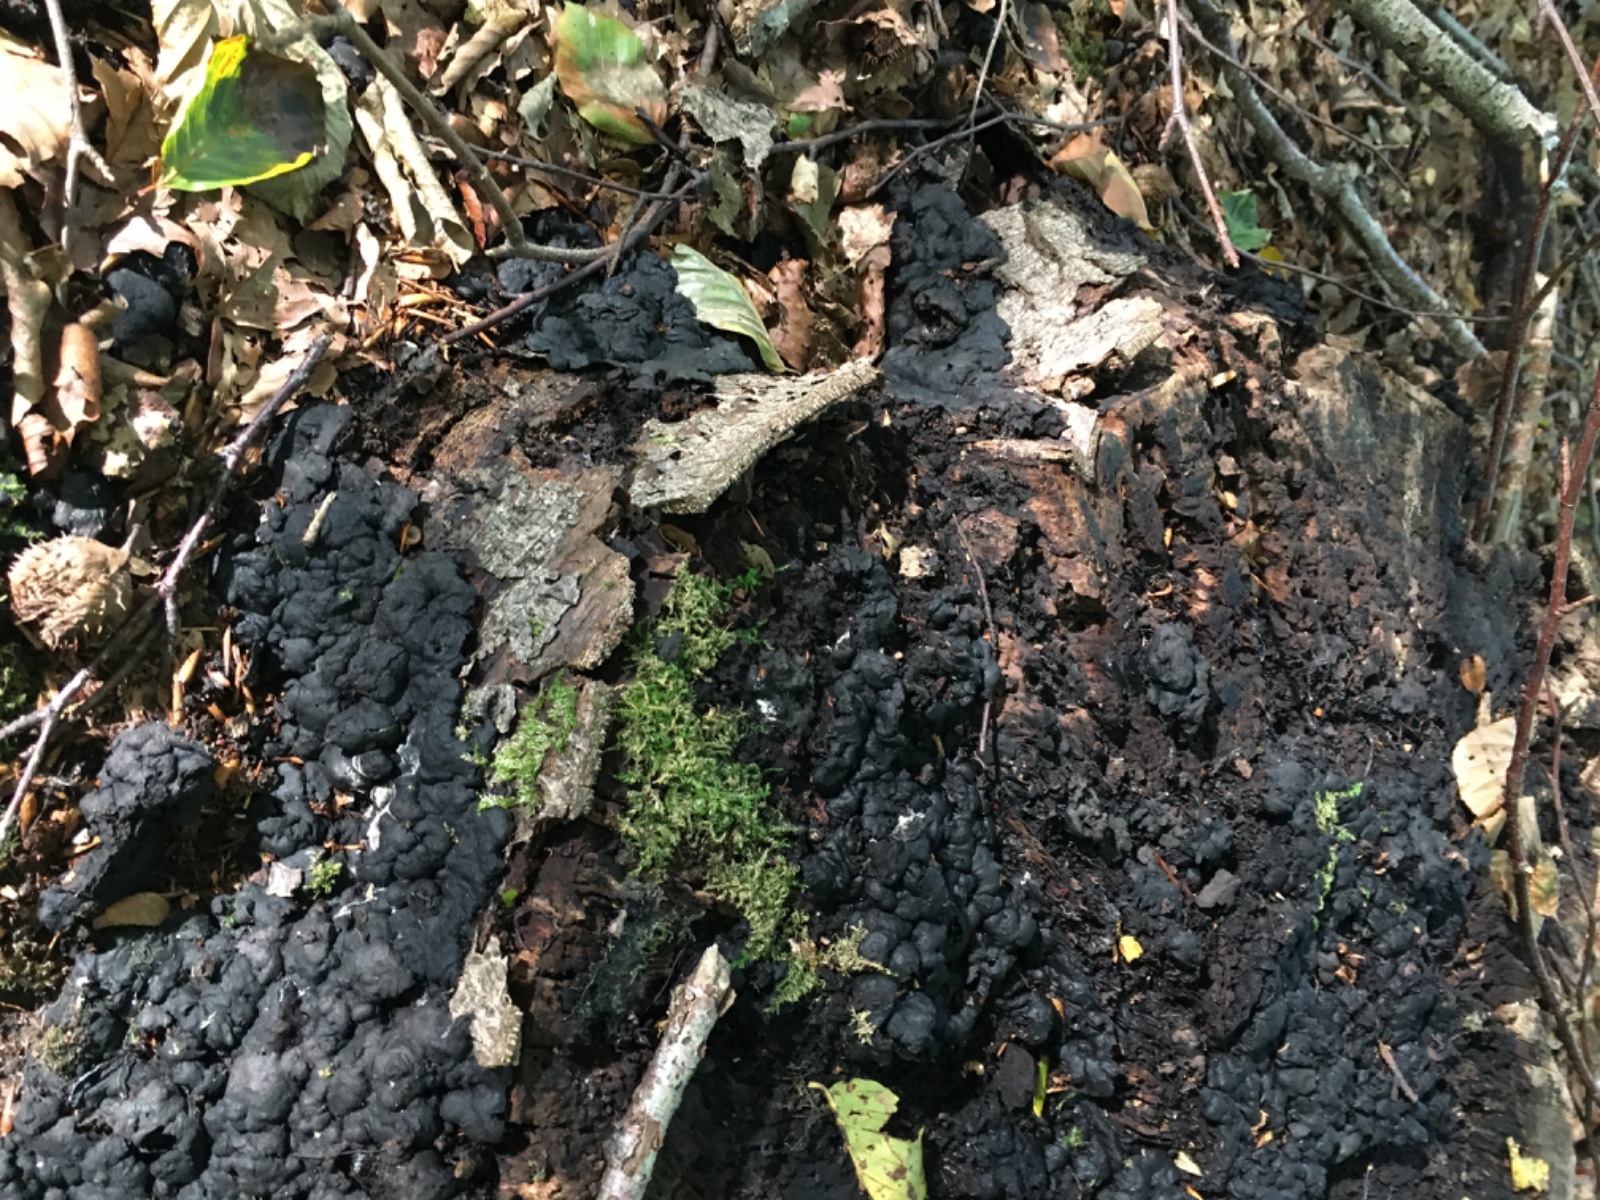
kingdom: Fungi
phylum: Ascomycota
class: Sordariomycetes
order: Xylariales
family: Xylariaceae
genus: Kretzschmaria
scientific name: Kretzschmaria deusta
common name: stor kulsvamp
